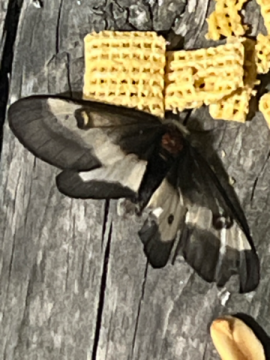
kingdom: Animalia
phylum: Arthropoda
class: Insecta
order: Lepidoptera
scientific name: Lepidoptera
